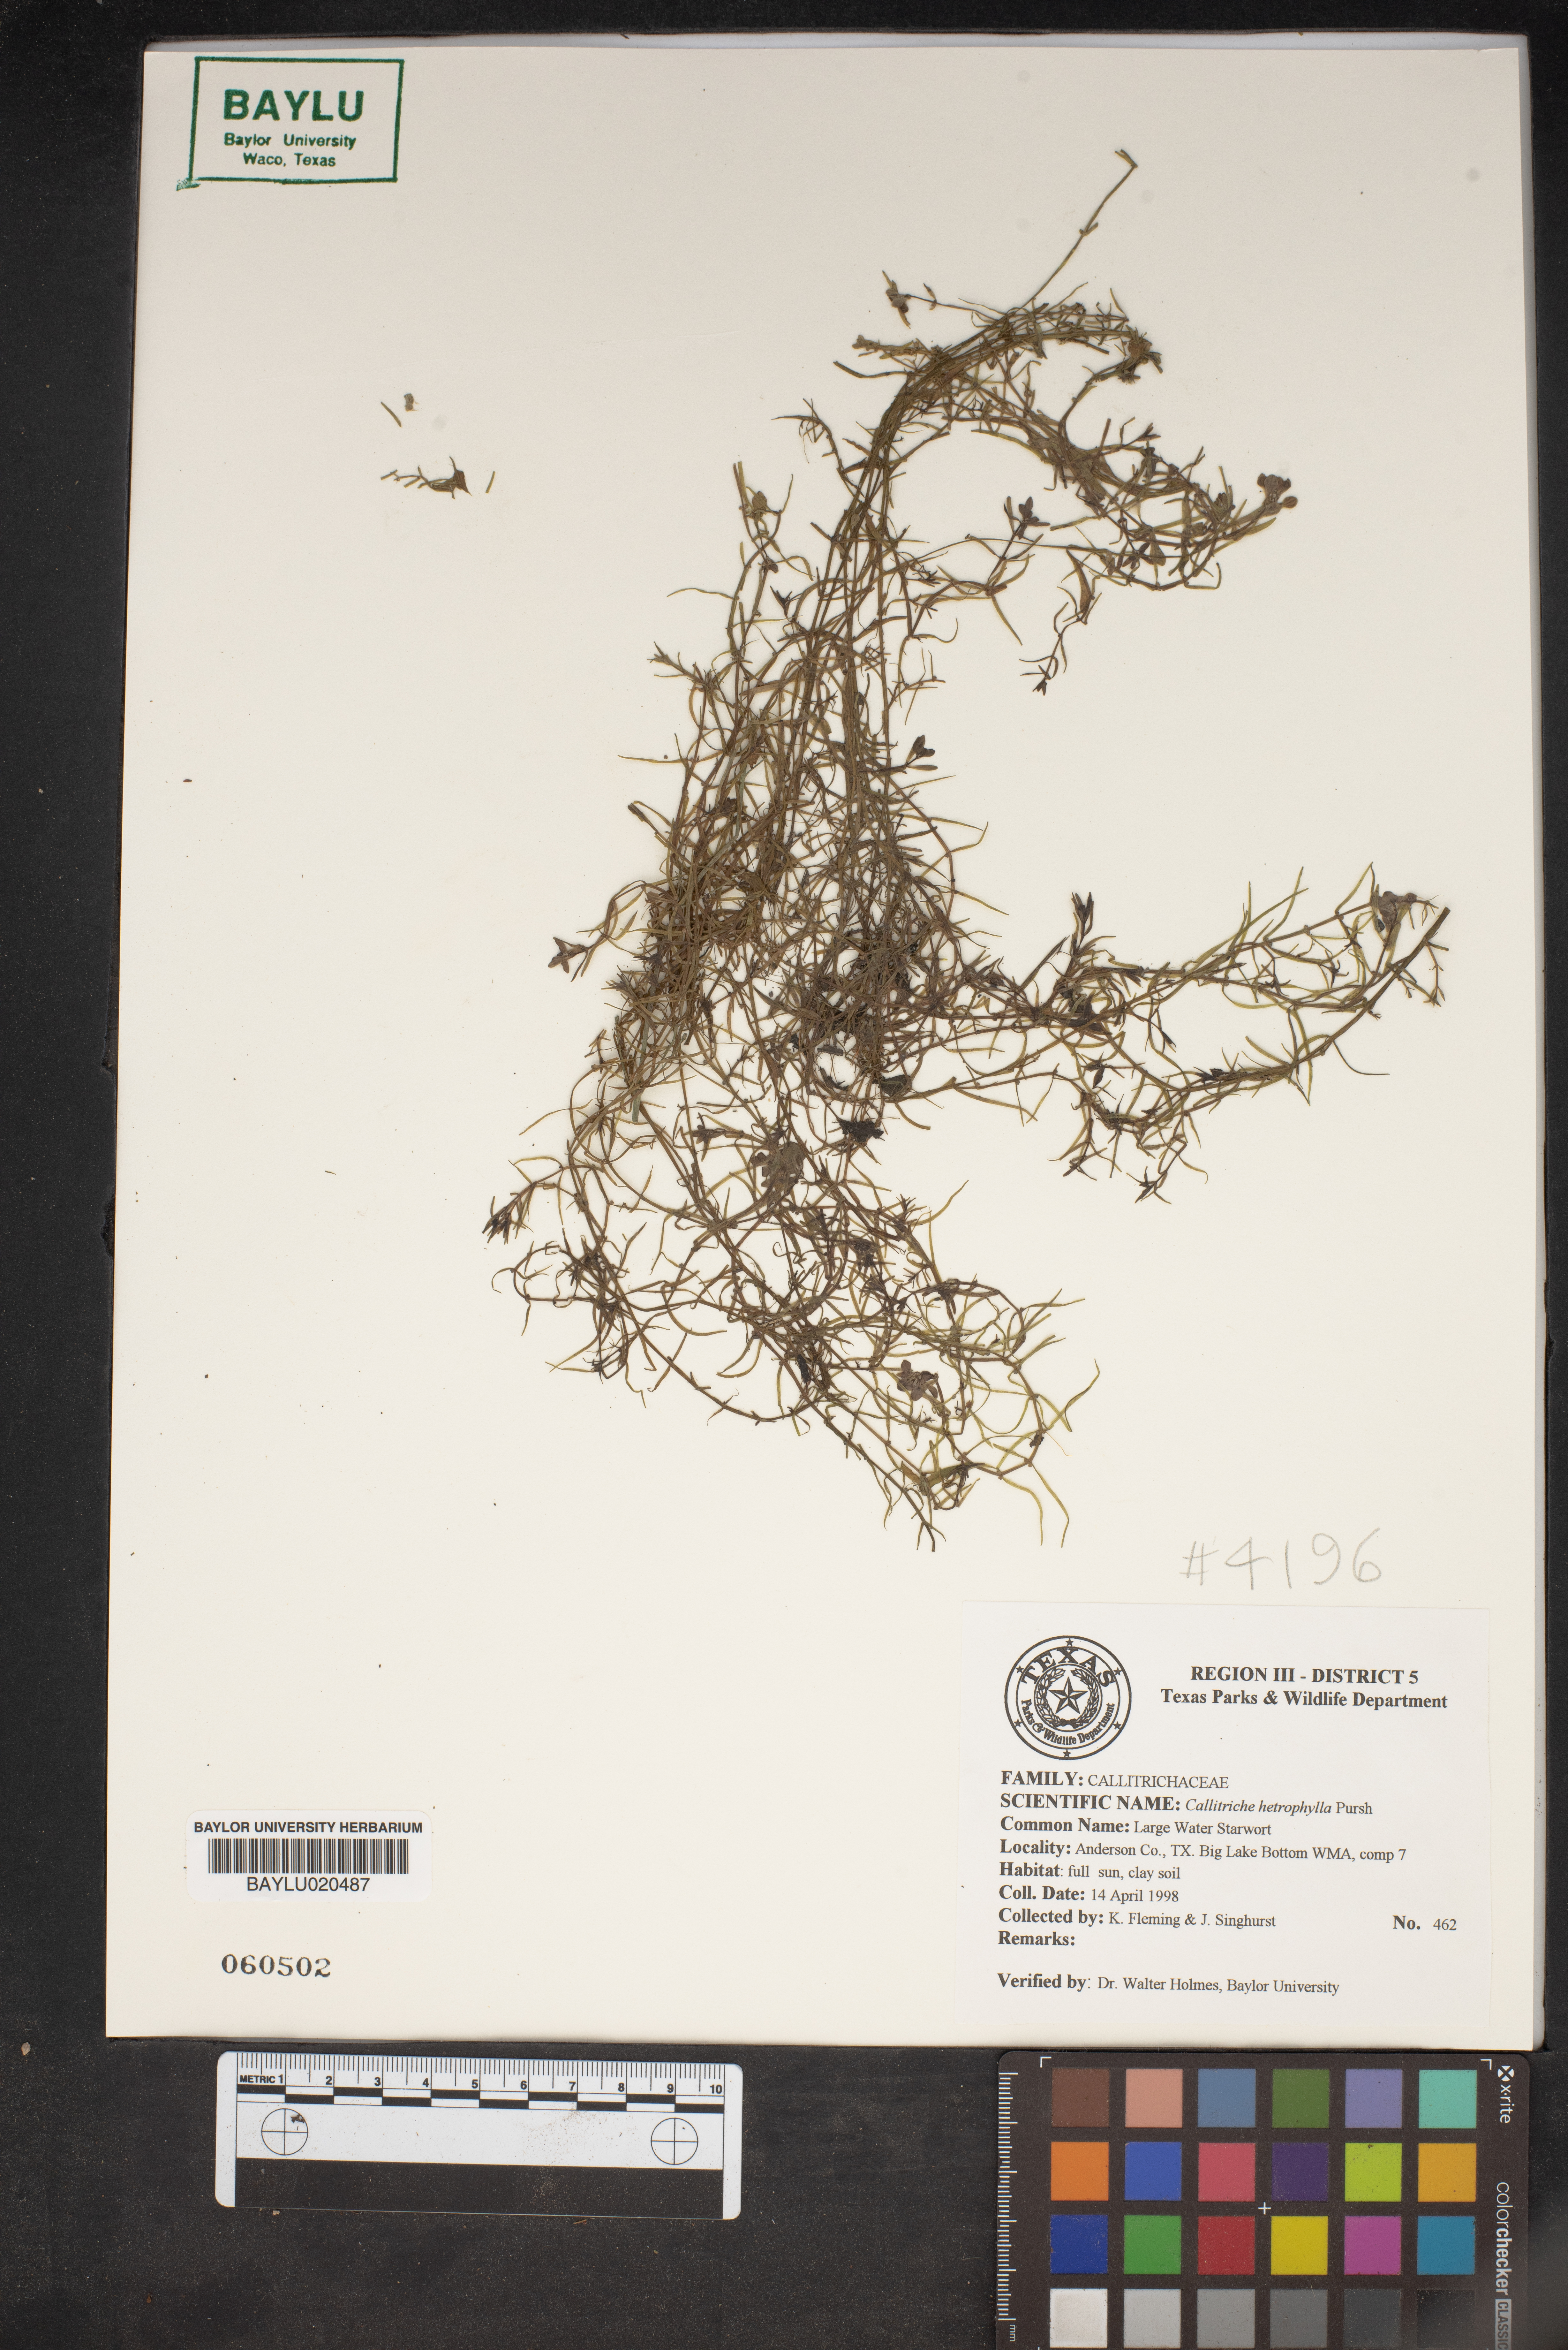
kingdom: Plantae
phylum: Tracheophyta
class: Magnoliopsida
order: Lamiales
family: Plantaginaceae
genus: Callitriche
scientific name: Callitriche heterophylla
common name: Two-headed water-starwort
